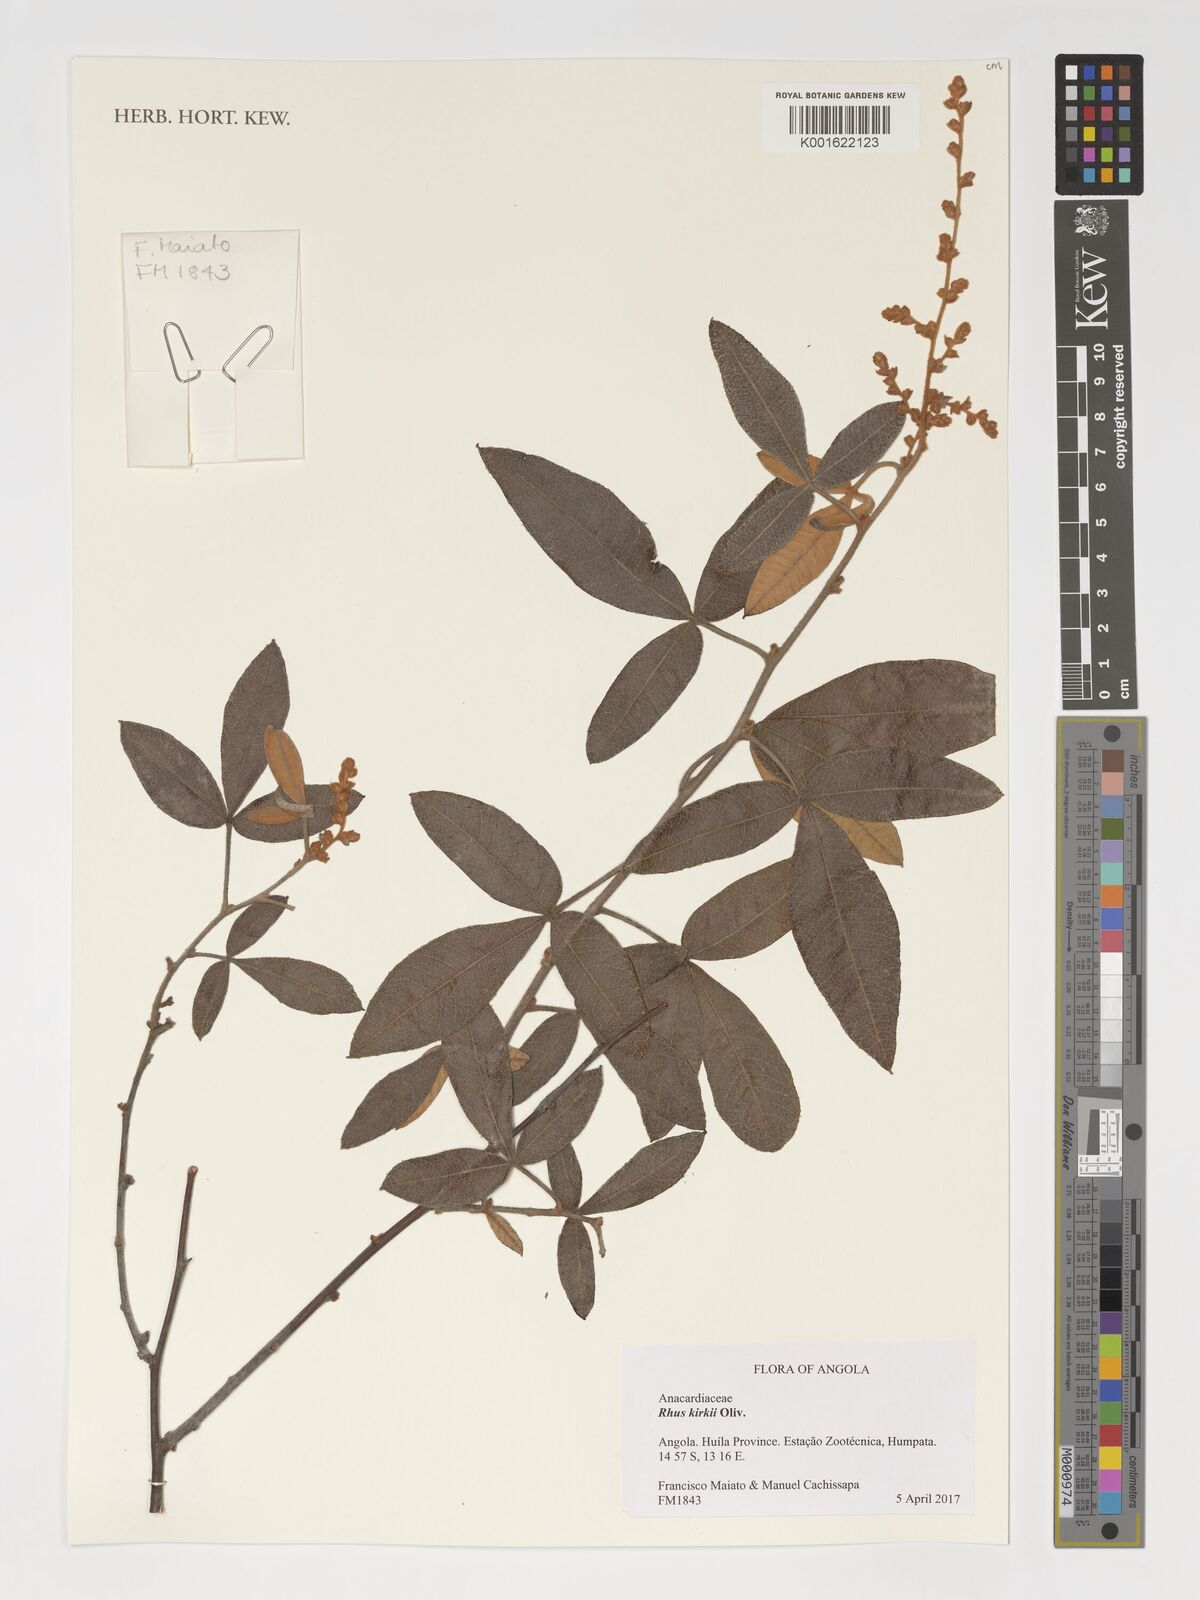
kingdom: Plantae
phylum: Tracheophyta
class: Magnoliopsida
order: Sapindales
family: Anacardiaceae
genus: Searsia
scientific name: Searsia kirkii
